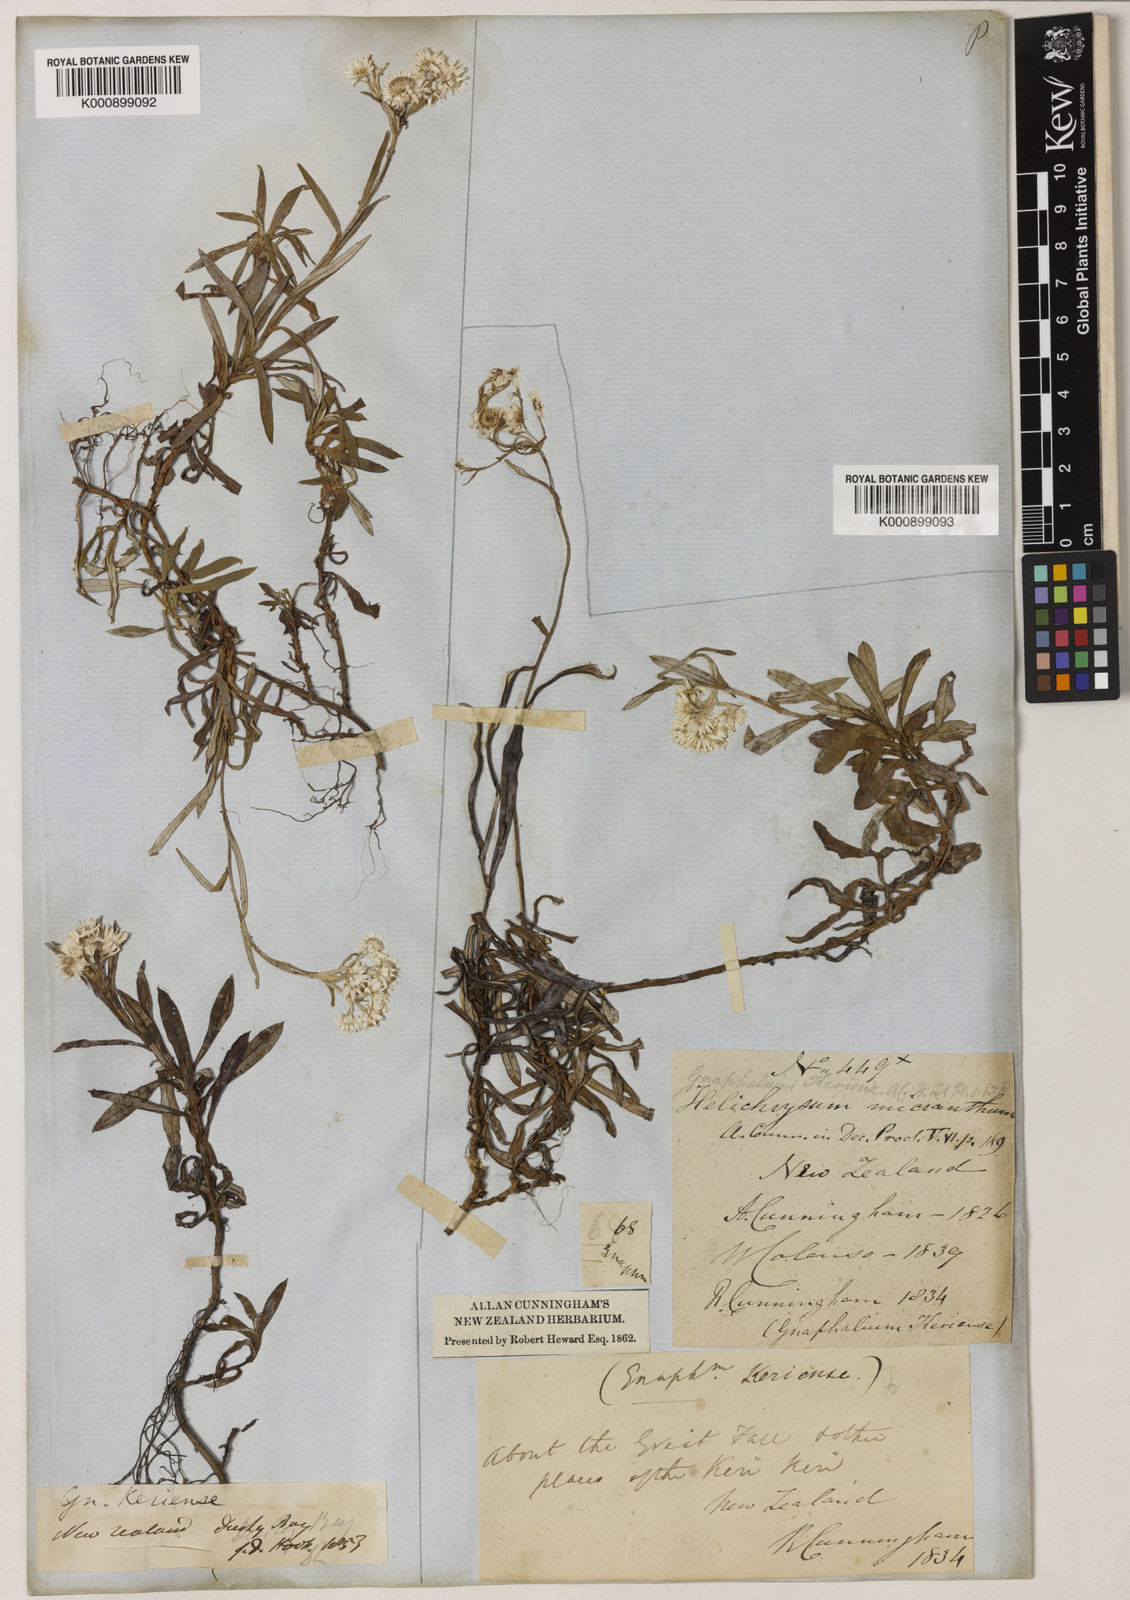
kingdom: Plantae
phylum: Tracheophyta
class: Magnoliopsida
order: Asterales
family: Asteraceae
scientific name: Asteraceae
